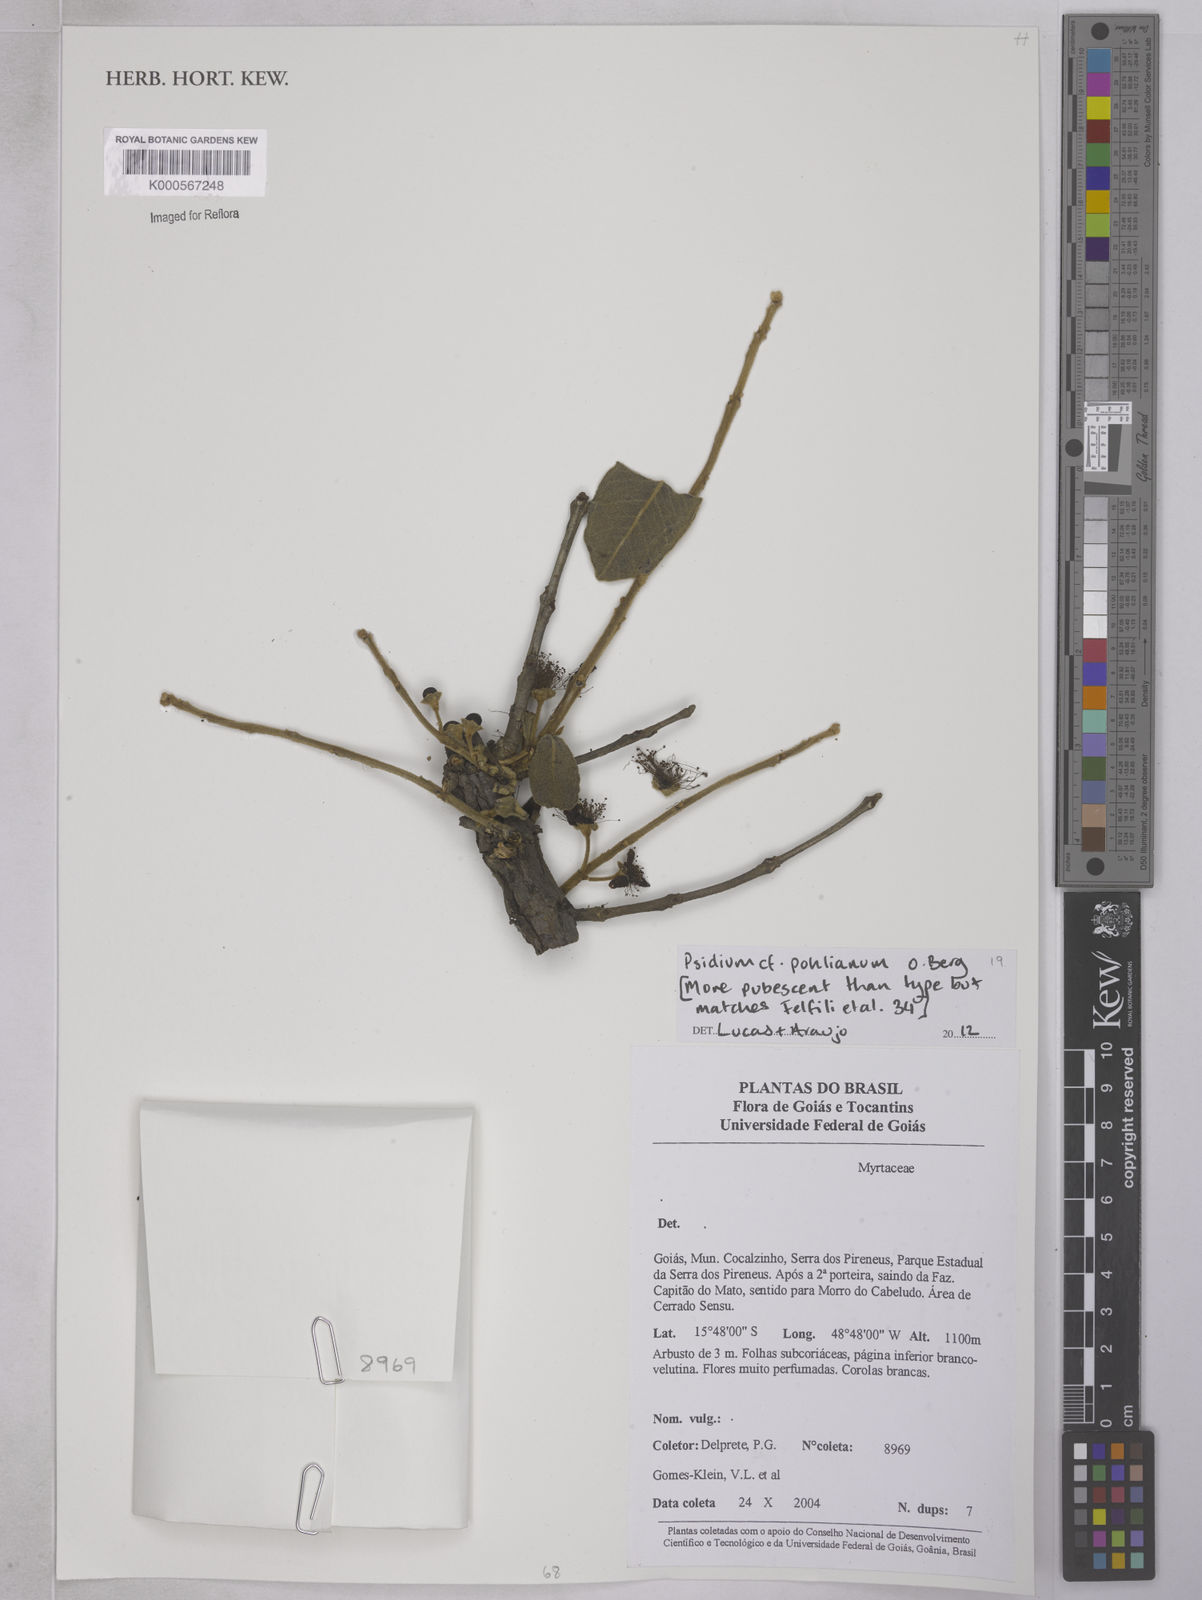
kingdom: Plantae
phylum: Tracheophyta
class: Magnoliopsida
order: Myrtales
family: Myrtaceae
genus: Psidium
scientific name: Psidium salutare
